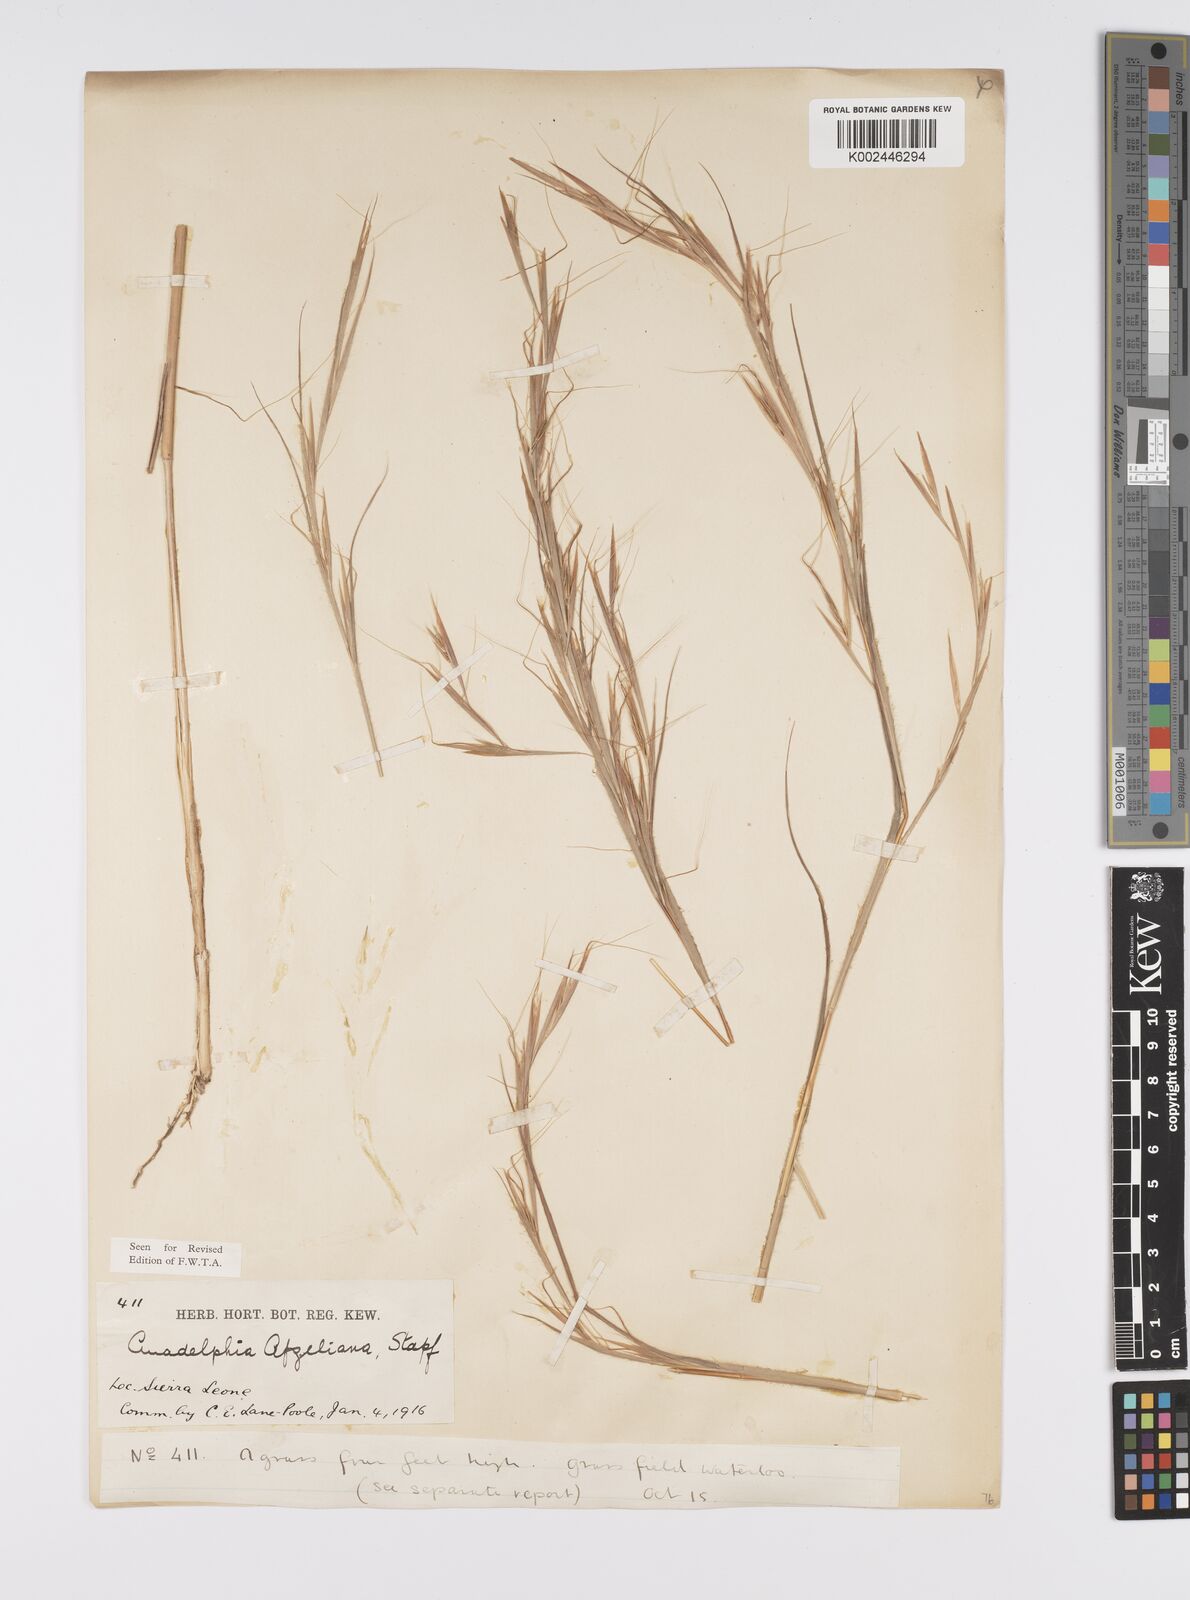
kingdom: Plantae
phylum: Tracheophyta
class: Liliopsida
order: Poales
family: Poaceae
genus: Anadelphia
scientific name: Anadelphia afzeliana
